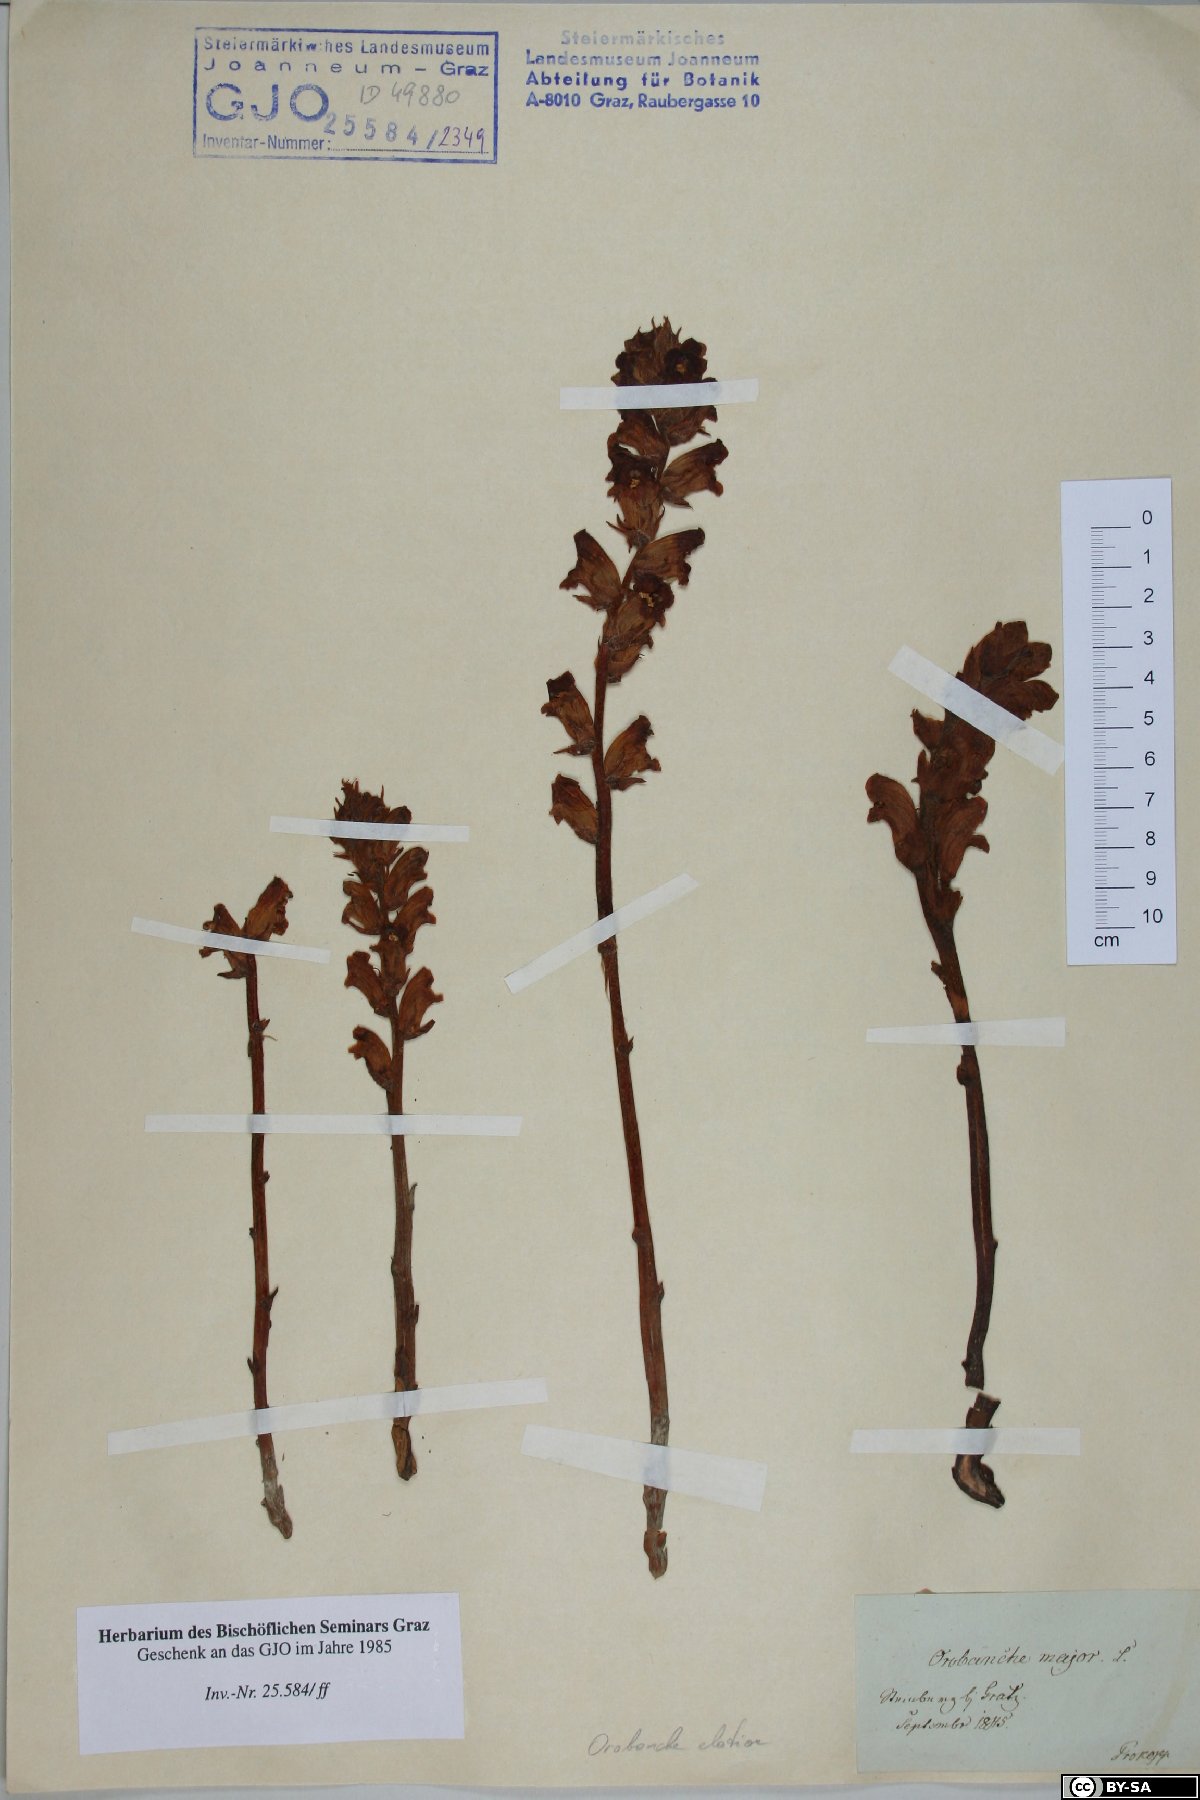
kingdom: Plantae
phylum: Tracheophyta
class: Magnoliopsida
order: Lamiales
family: Orobanchaceae
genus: Orobanche
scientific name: Orobanche rapum-genistae
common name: Greater broomrape
